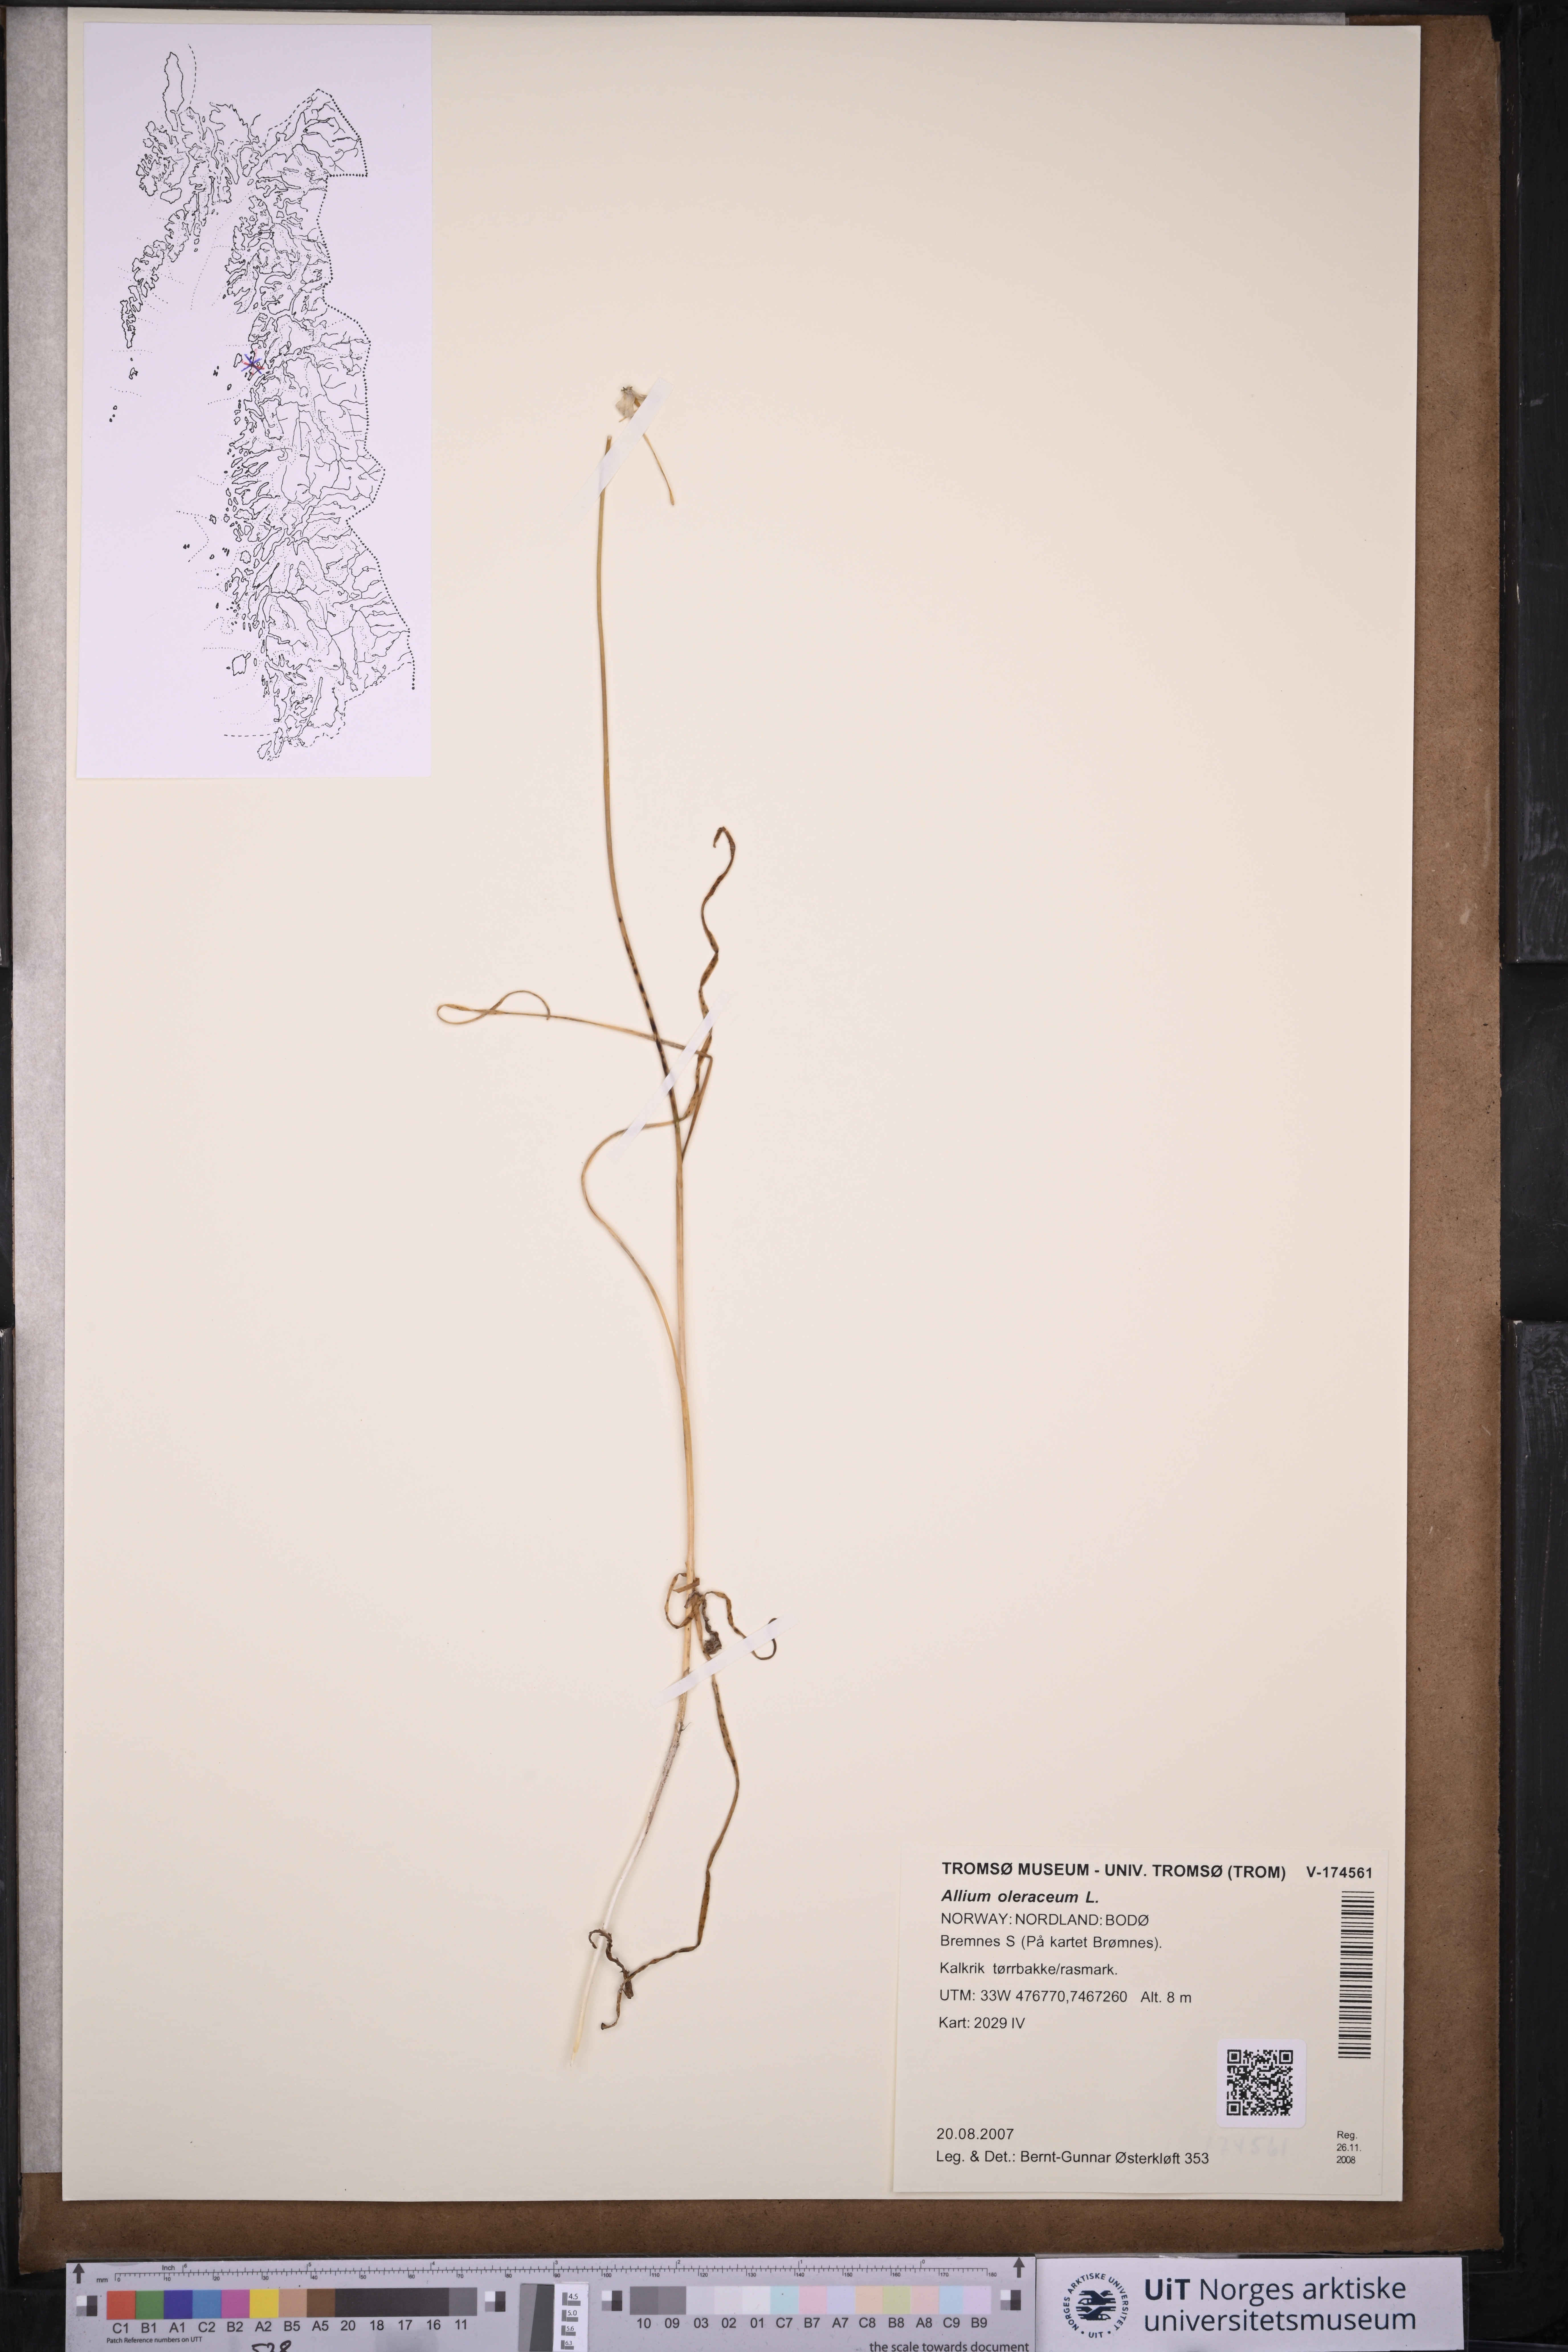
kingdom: Plantae
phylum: Tracheophyta
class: Liliopsida
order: Asparagales
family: Amaryllidaceae
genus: Allium
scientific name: Allium oleraceum
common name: Field garlic
